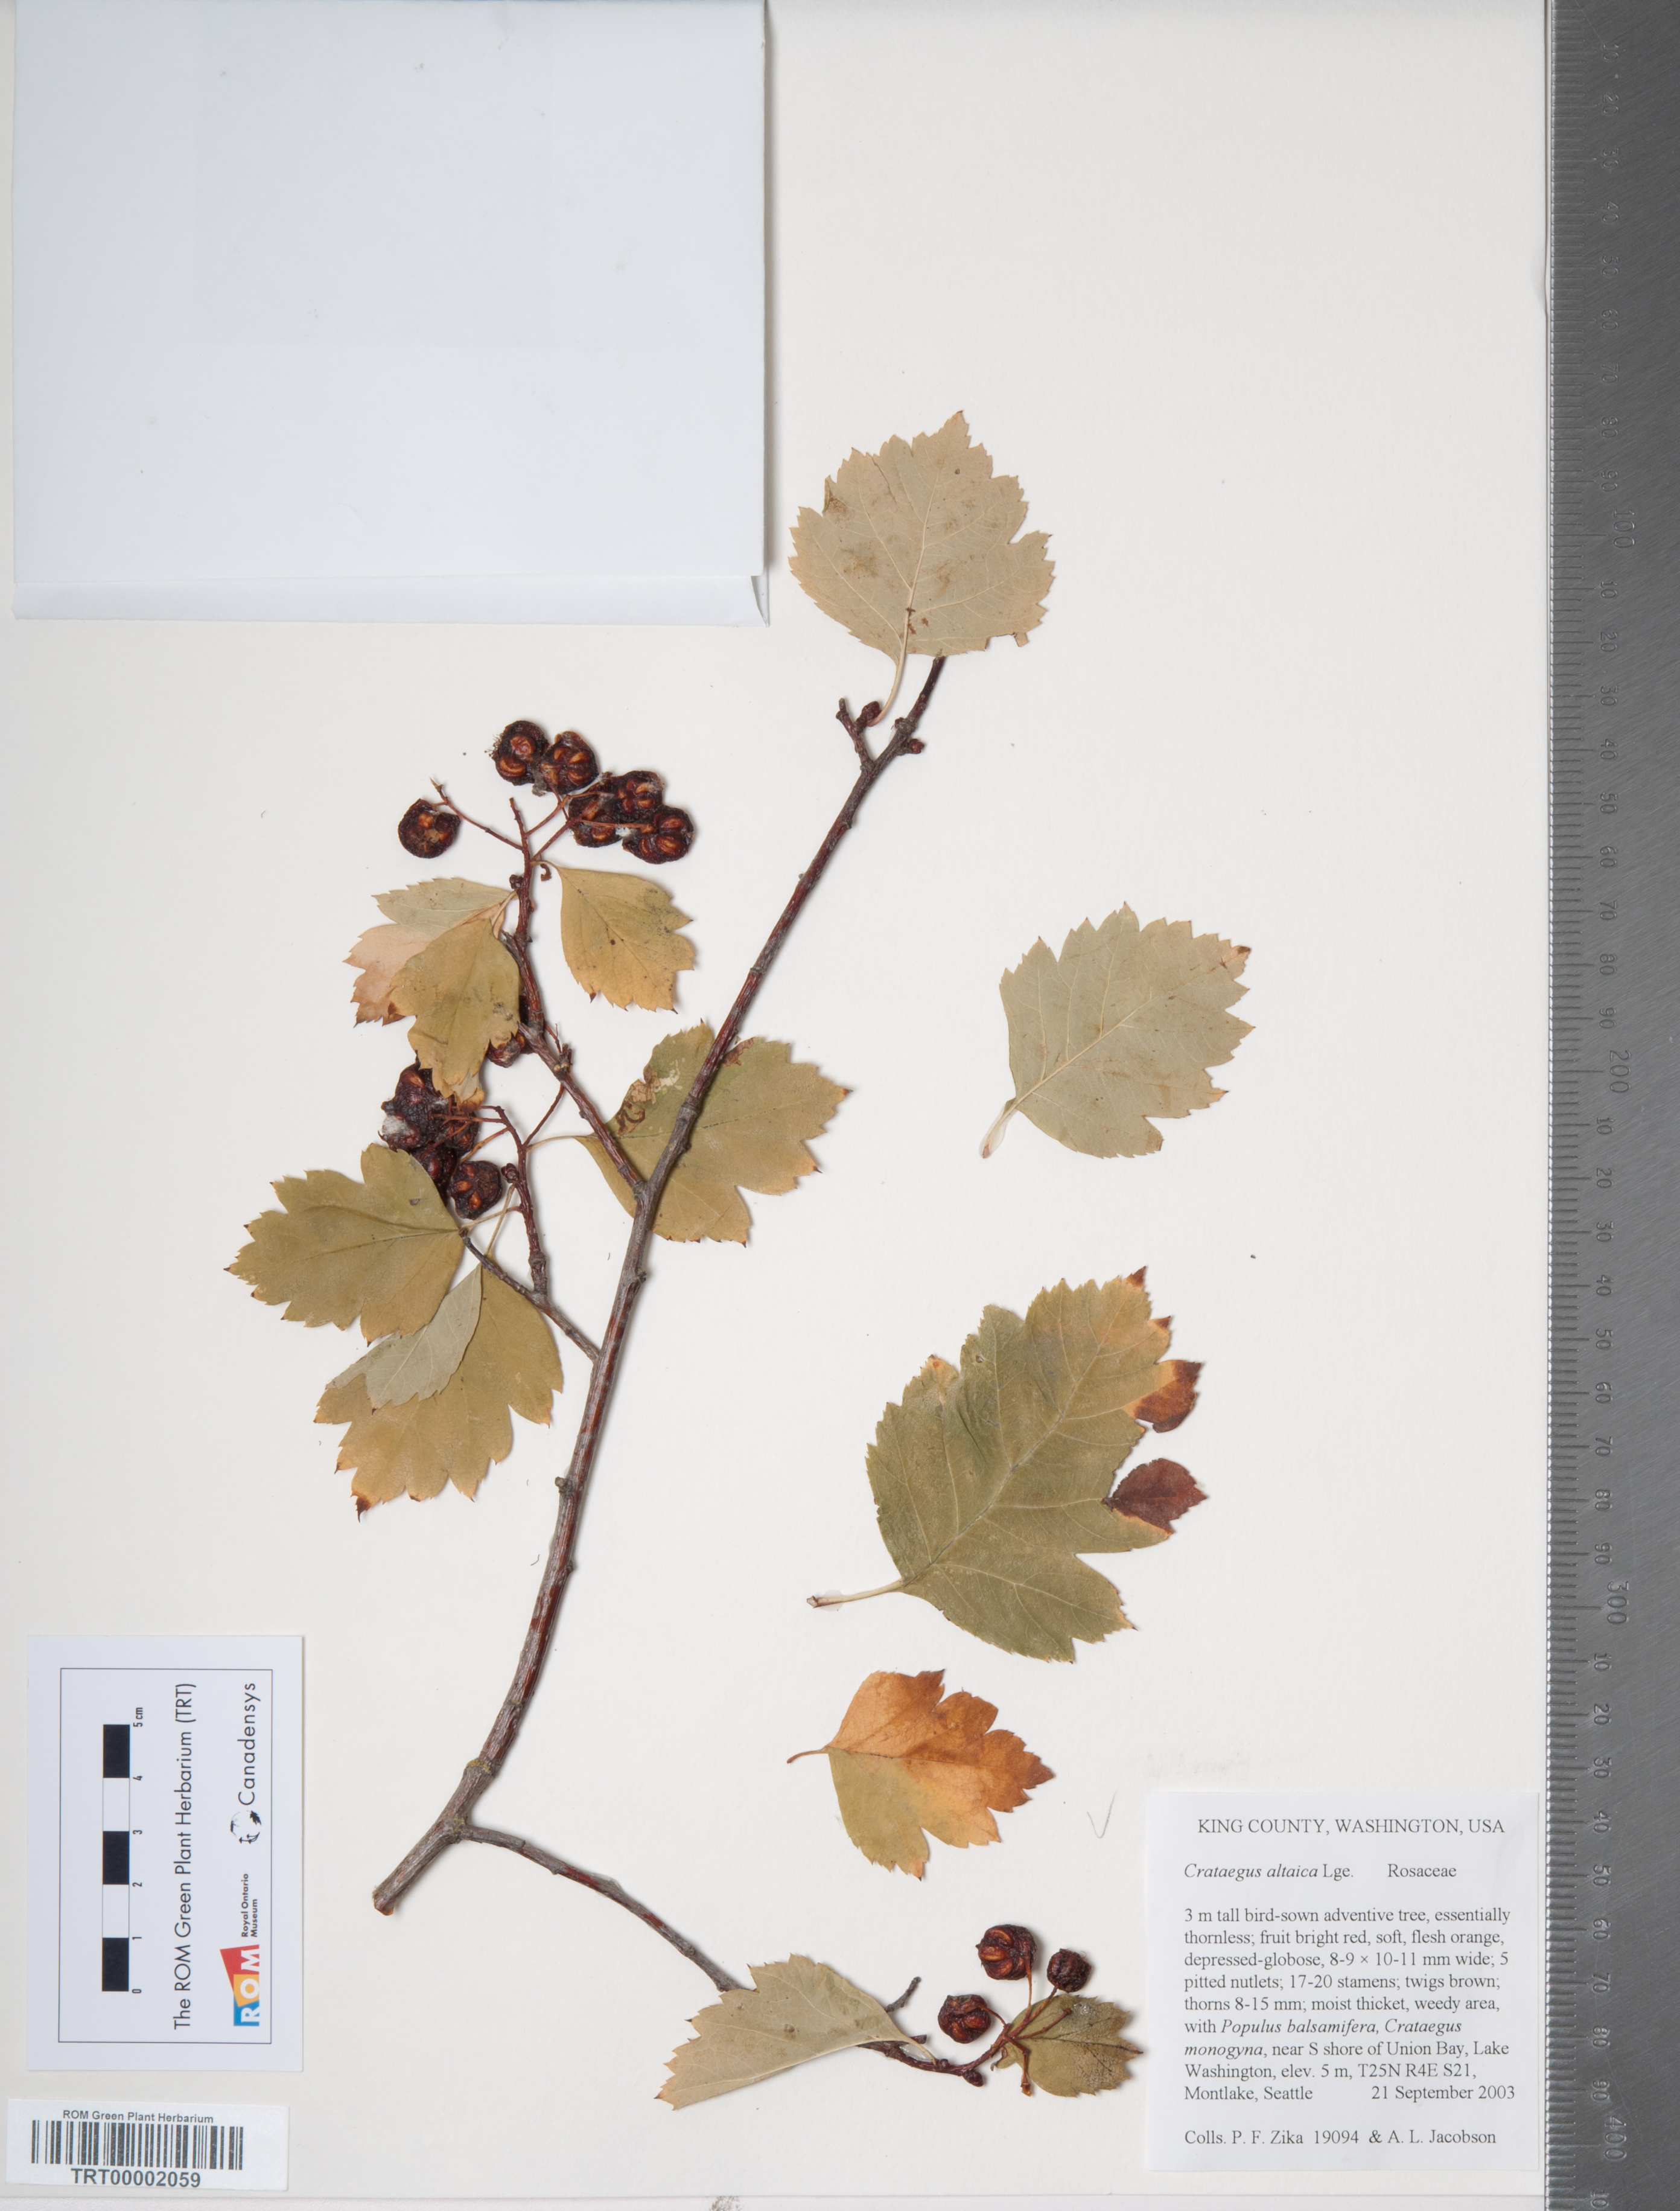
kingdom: Plantae
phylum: Tracheophyta
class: Magnoliopsida
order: Rosales
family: Rosaceae
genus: Crataegus
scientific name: Crataegus chlorocarpa
